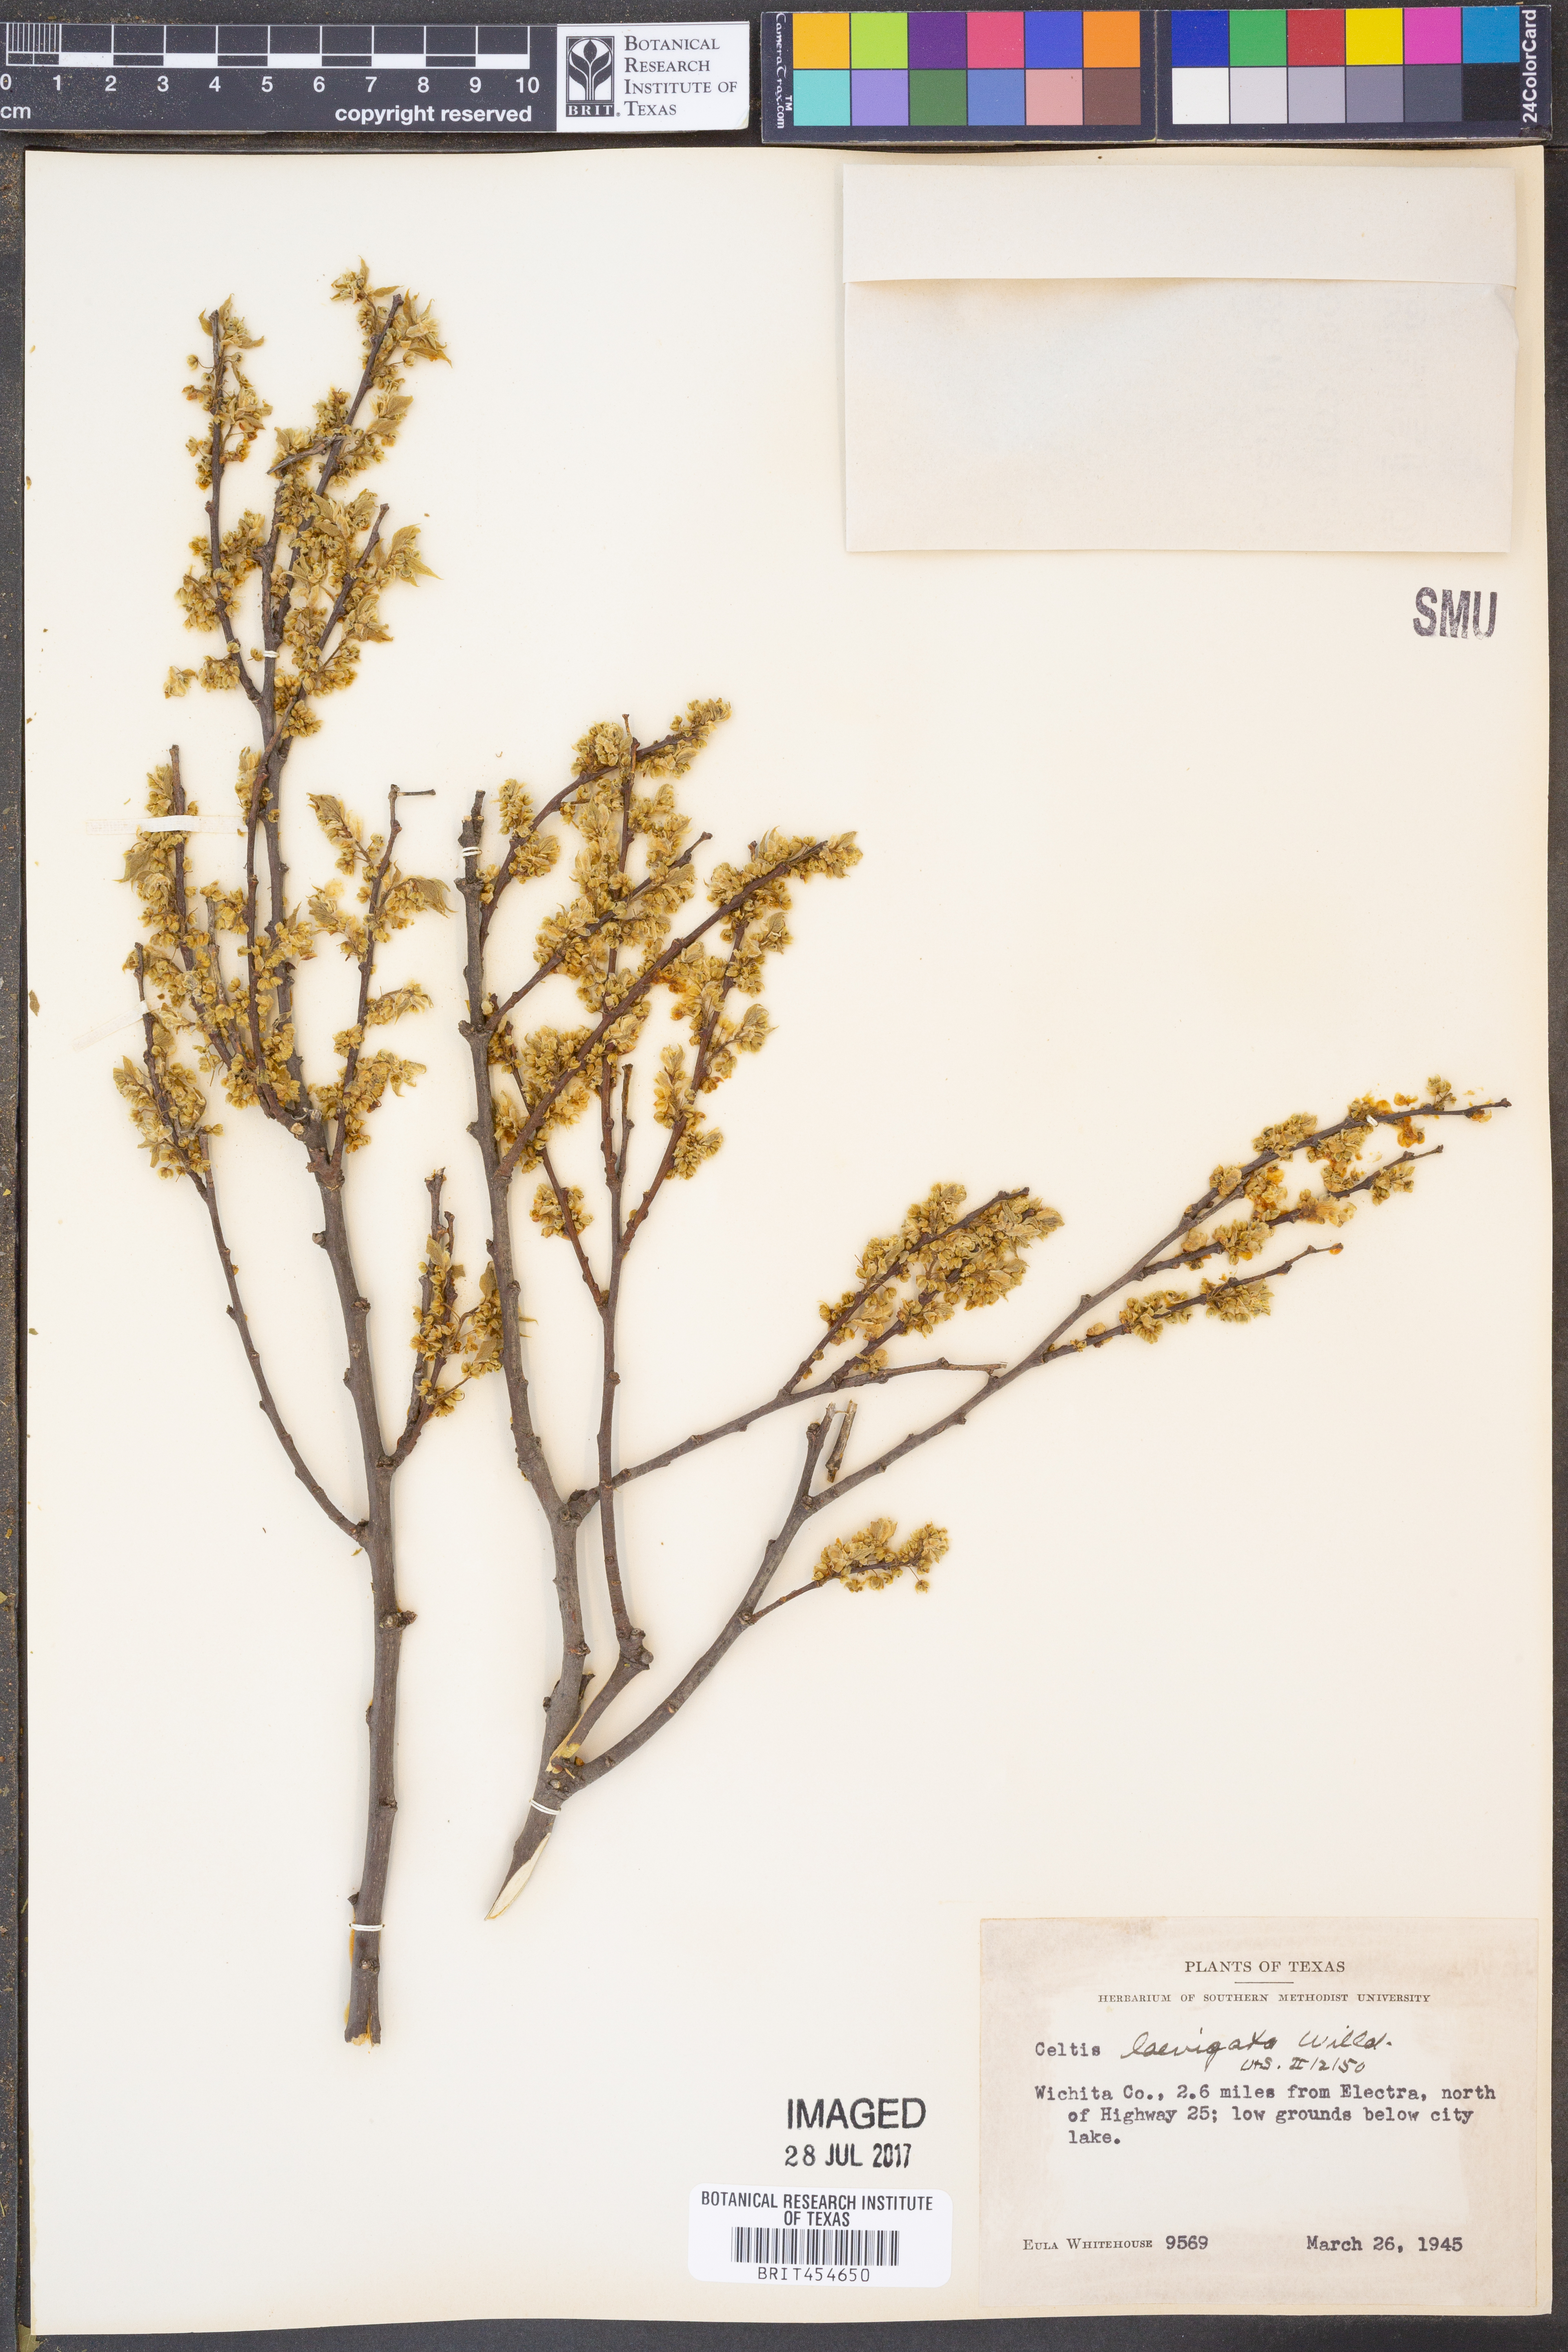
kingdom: Plantae
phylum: Tracheophyta
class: Magnoliopsida
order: Rosales
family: Cannabaceae
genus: Celtis
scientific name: Celtis laevigata
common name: Sugarberry
